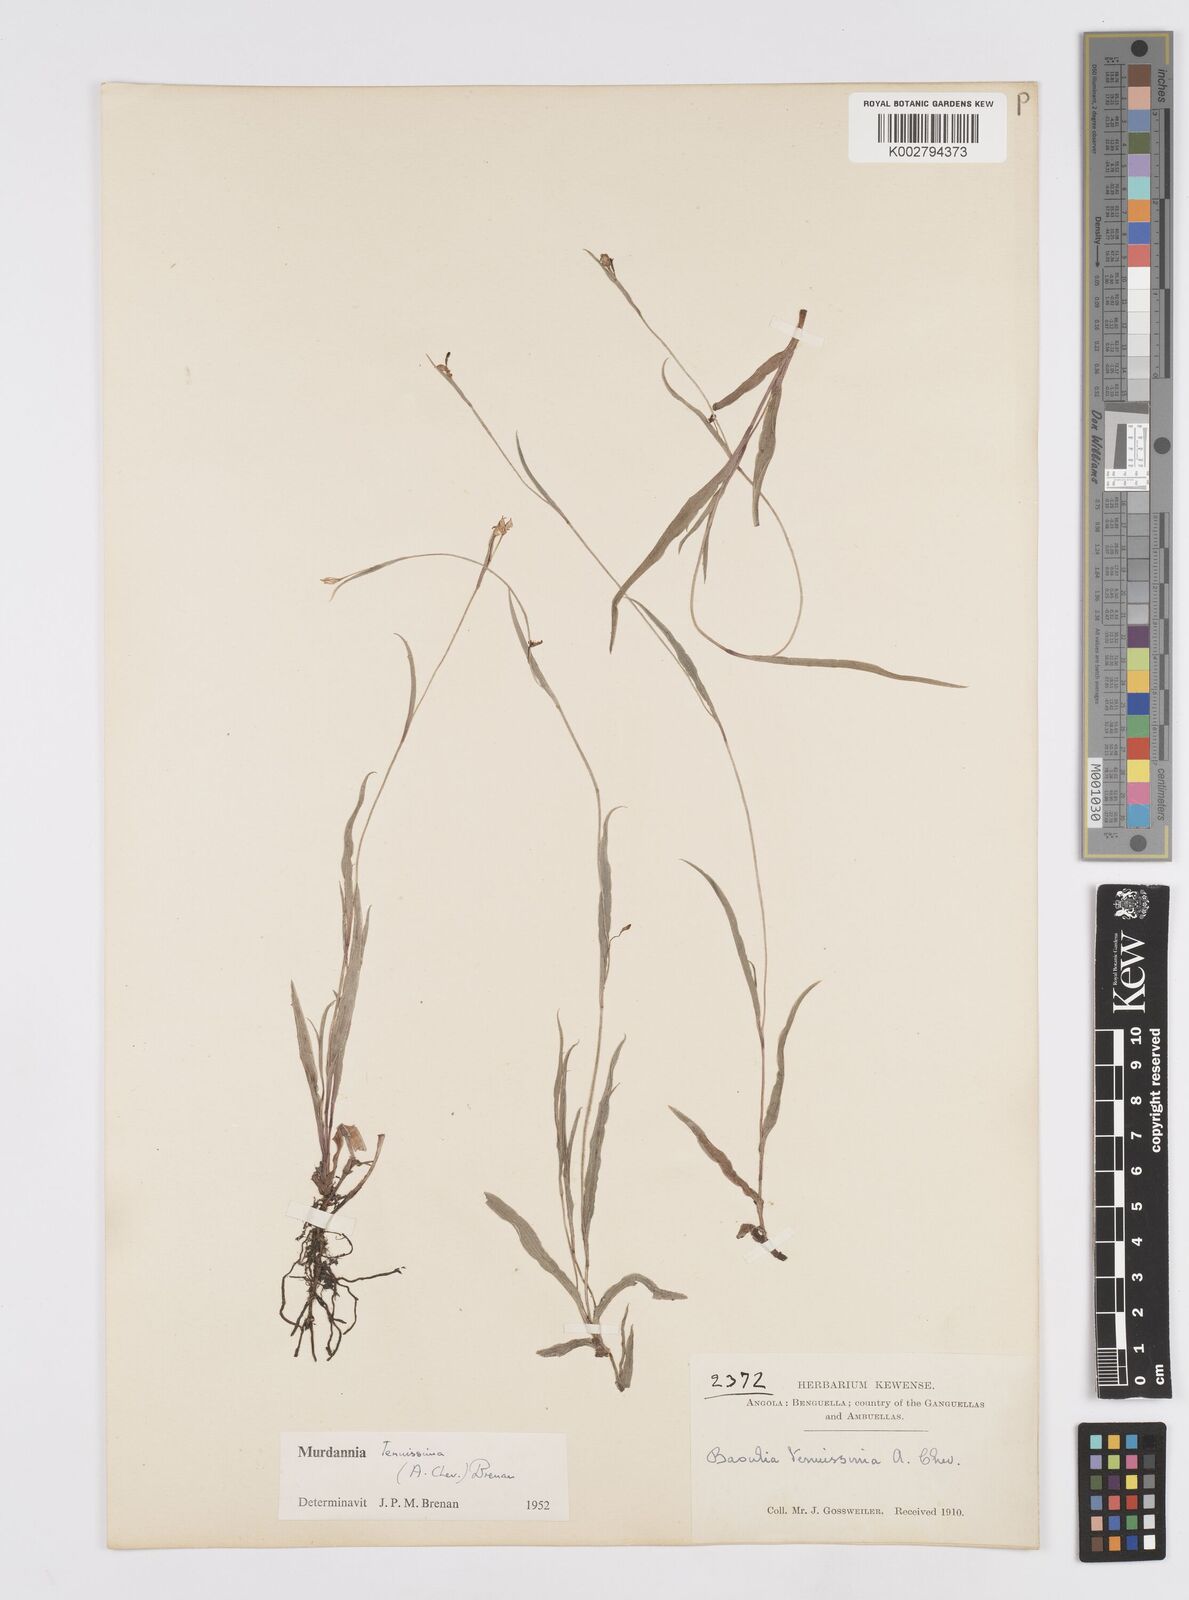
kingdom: Plantae
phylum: Tracheophyta
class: Liliopsida
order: Commelinales
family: Commelinaceae
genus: Murdannia
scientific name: Murdannia tenuissima
